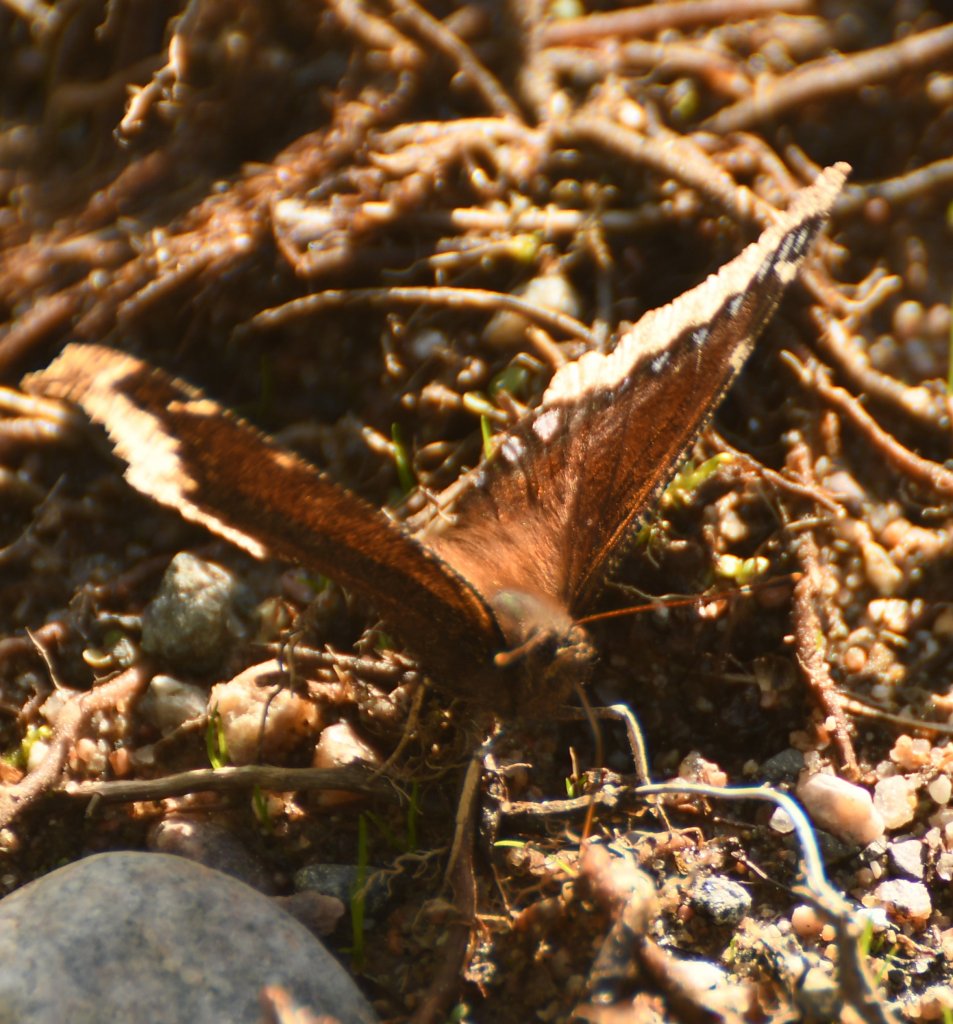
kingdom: Animalia
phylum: Arthropoda
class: Insecta
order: Lepidoptera
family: Nymphalidae
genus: Nymphalis
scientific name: Nymphalis antiopa
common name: Mourning Cloak
